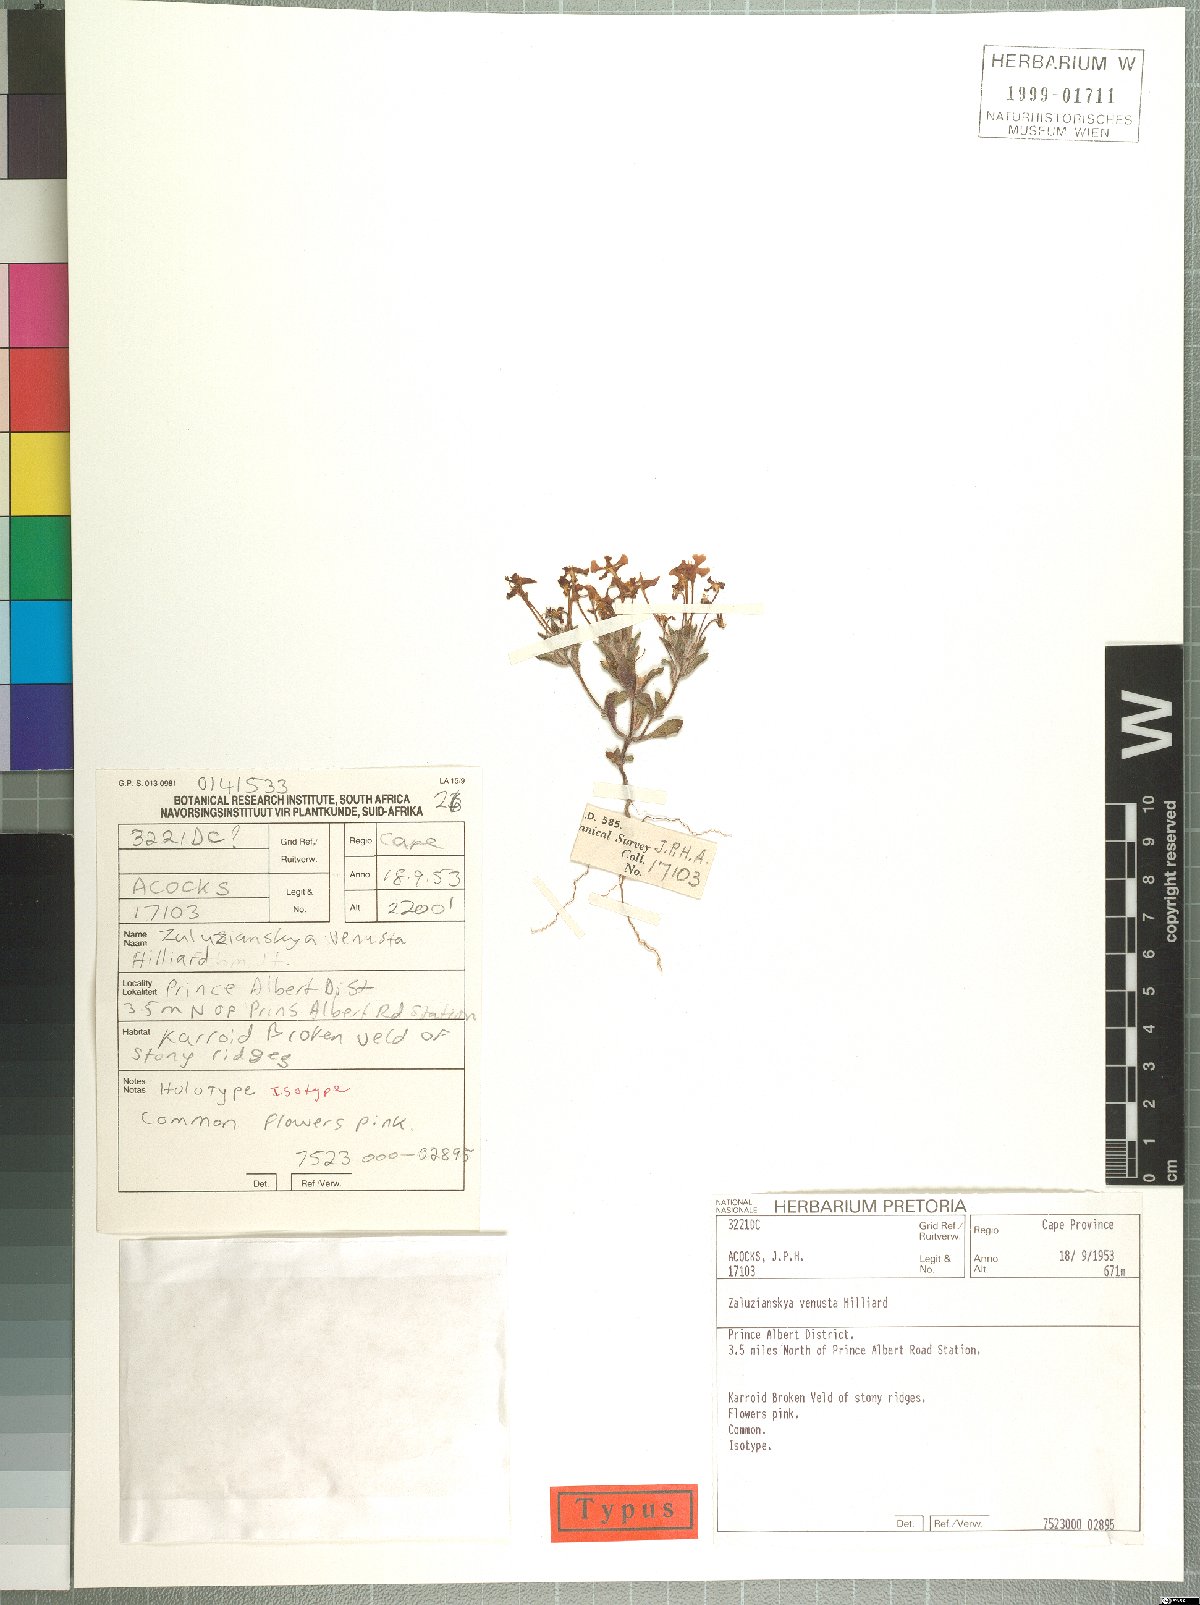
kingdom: Plantae
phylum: Tracheophyta
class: Magnoliopsida
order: Lamiales
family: Scrophulariaceae
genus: Zaluzianskya
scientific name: Zaluzianskya venusta
